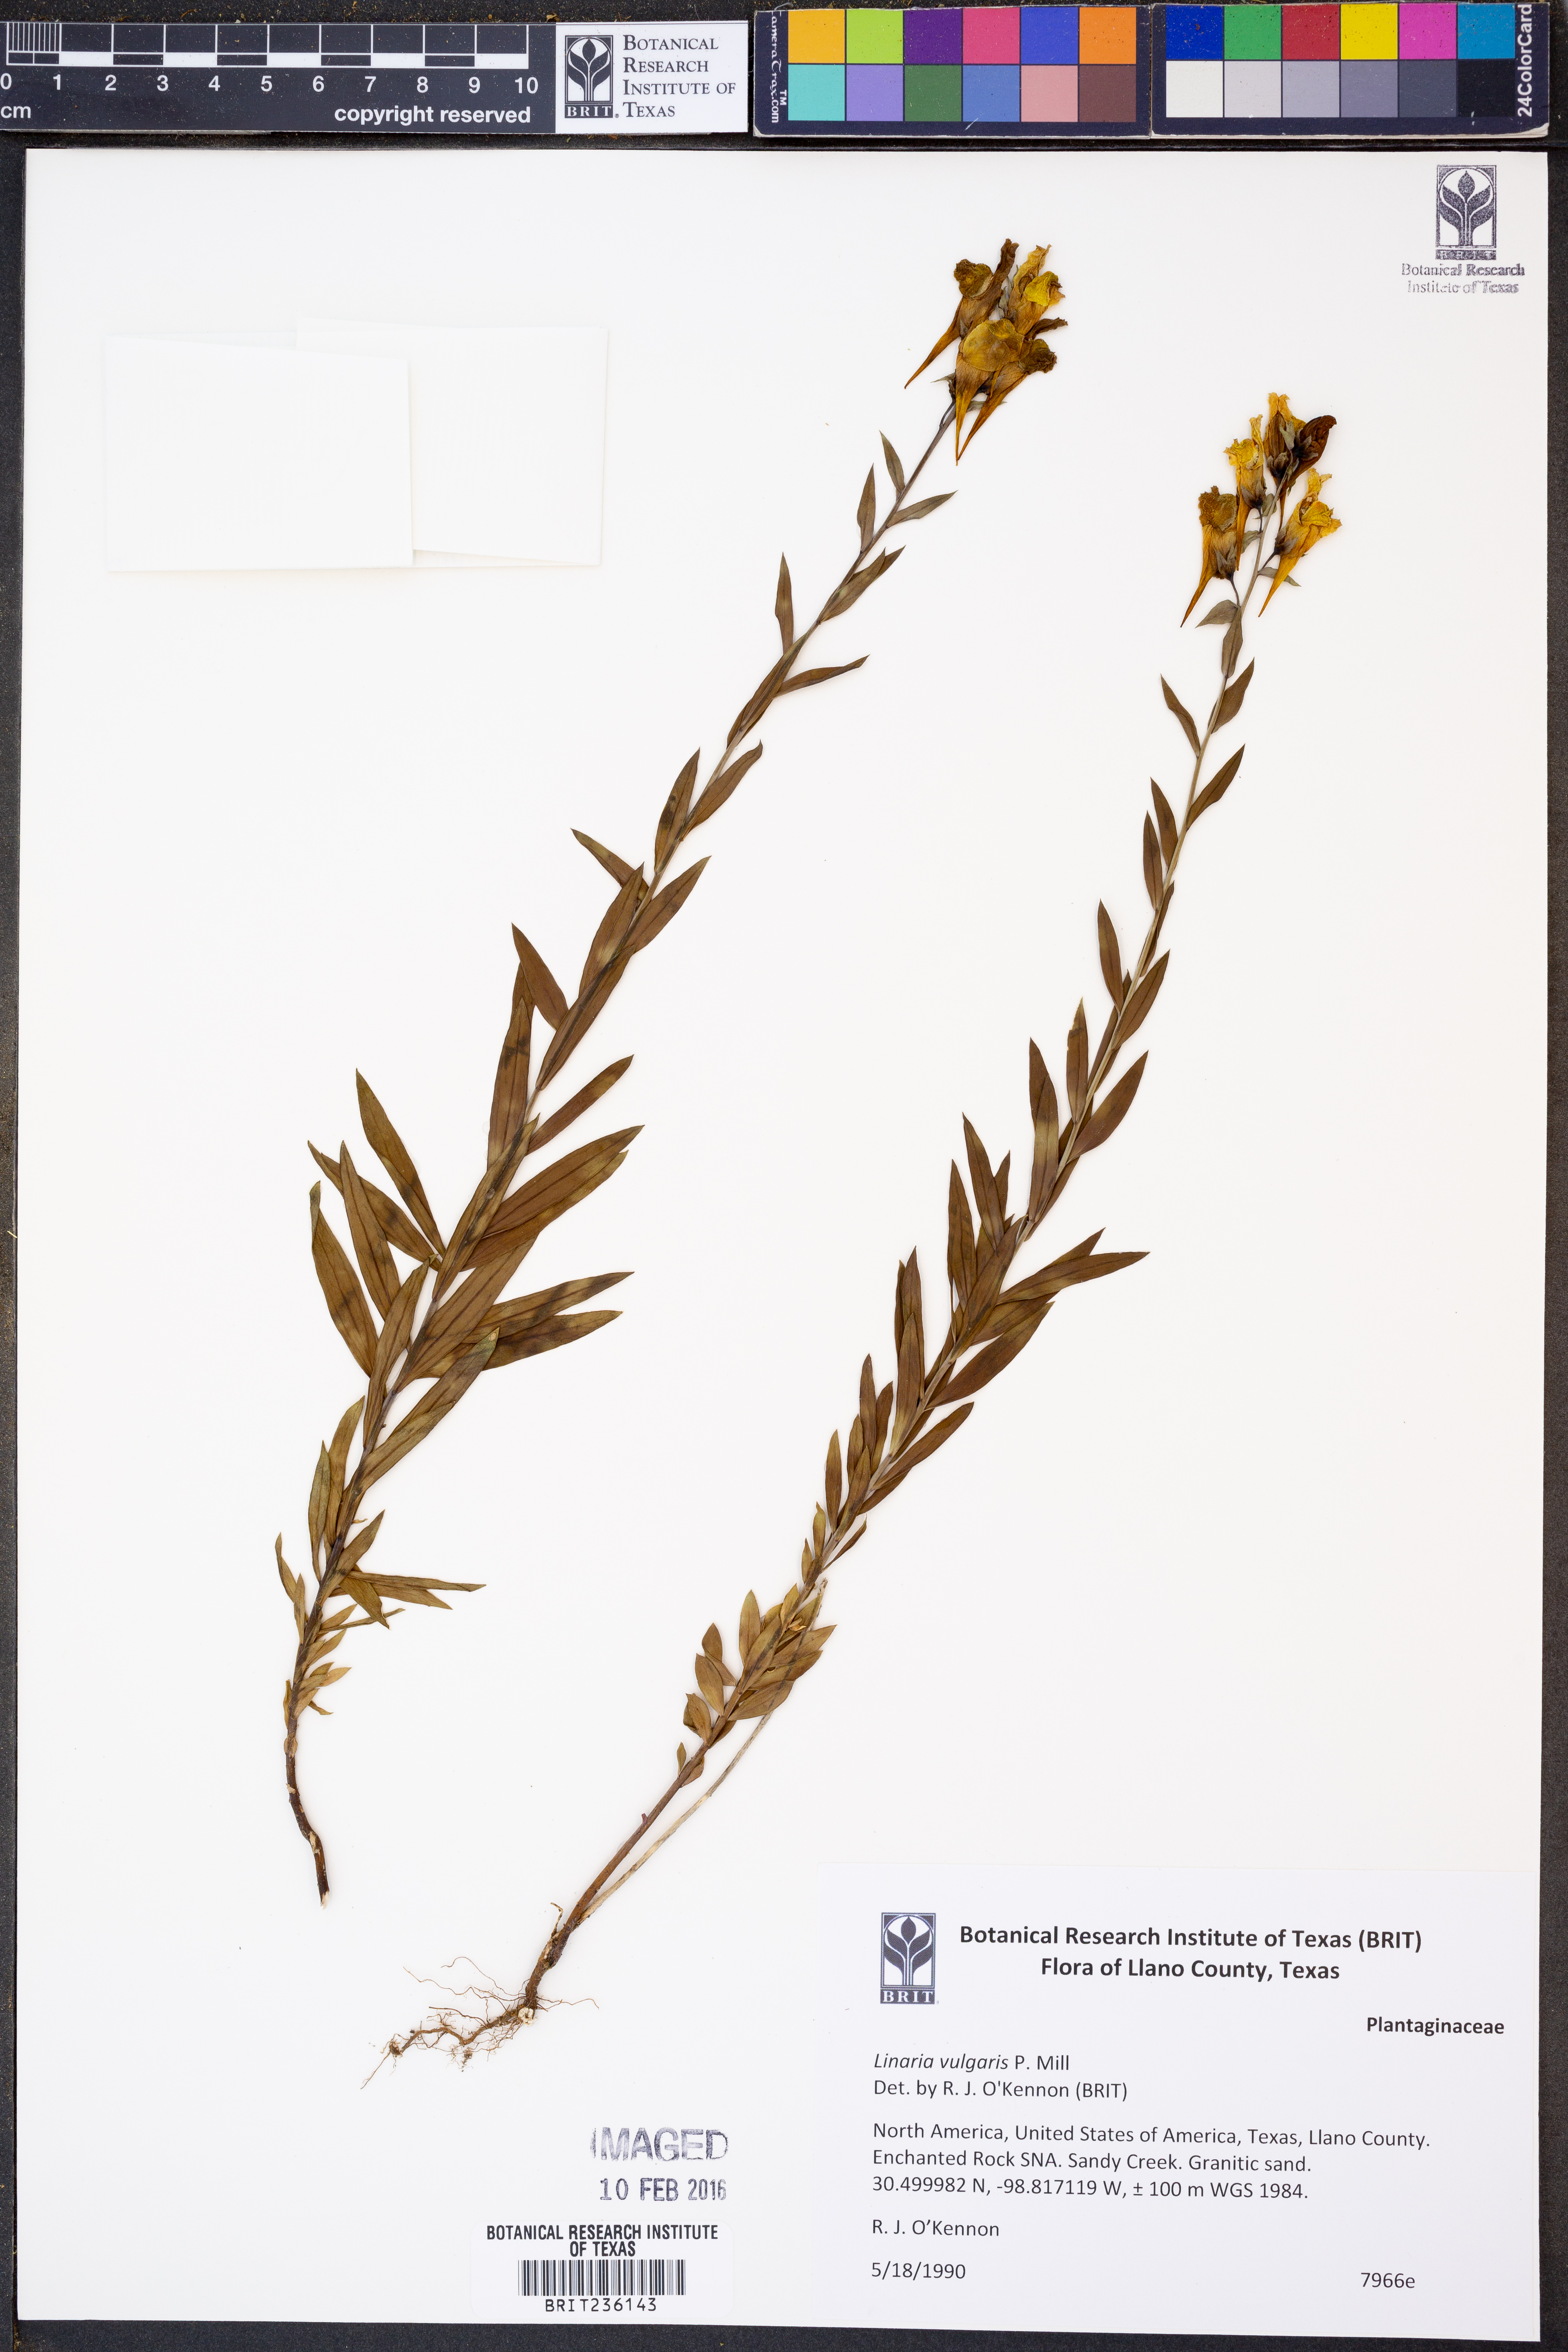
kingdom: Plantae
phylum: Tracheophyta
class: Magnoliopsida
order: Lamiales
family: Plantaginaceae
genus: Linaria
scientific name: Linaria vulgaris
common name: Butter and eggs
